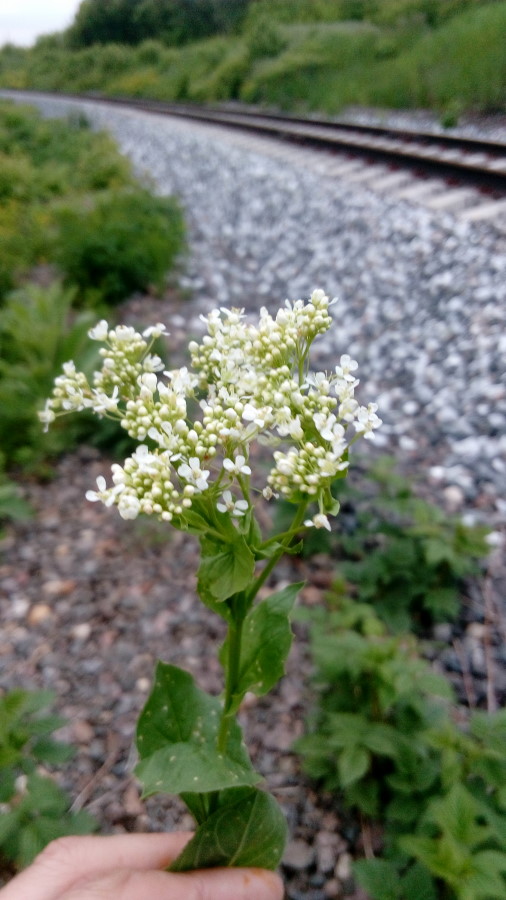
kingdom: Plantae
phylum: Tracheophyta
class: Magnoliopsida
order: Brassicales
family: Brassicaceae
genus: Lepidium
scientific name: Lepidium draba
